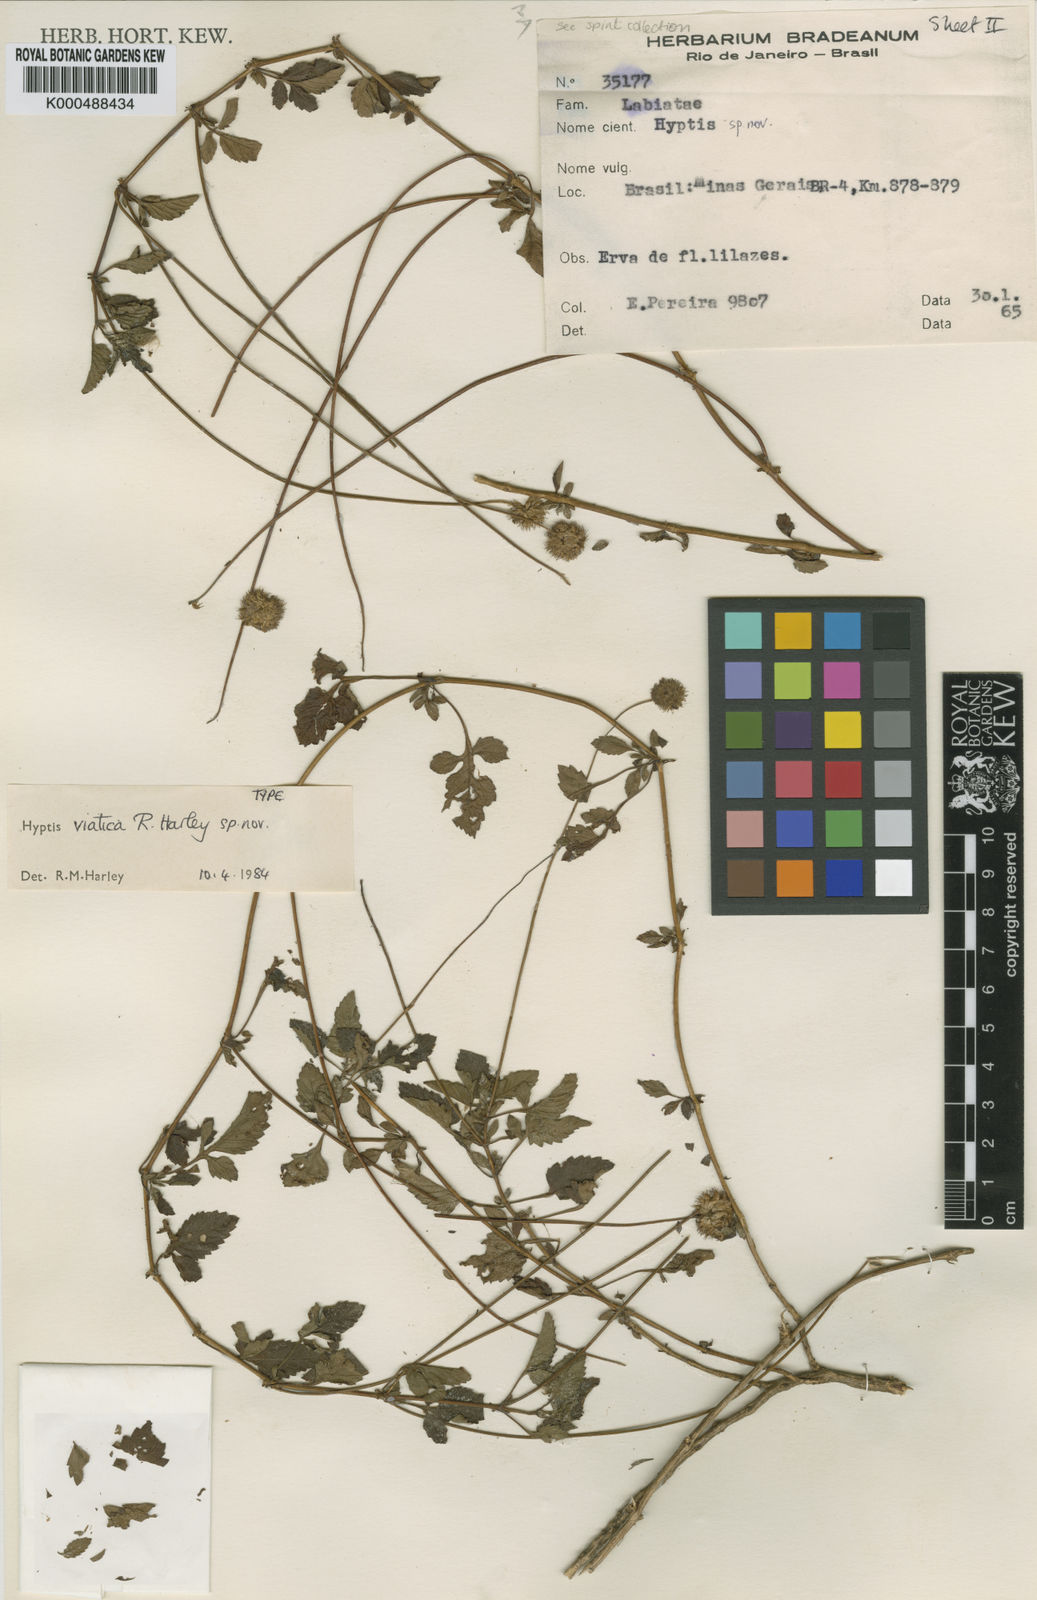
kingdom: Plantae
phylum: Tracheophyta
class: Magnoliopsida
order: Lamiales
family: Lamiaceae
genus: Cyanocephalus
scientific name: Cyanocephalus viaticus
